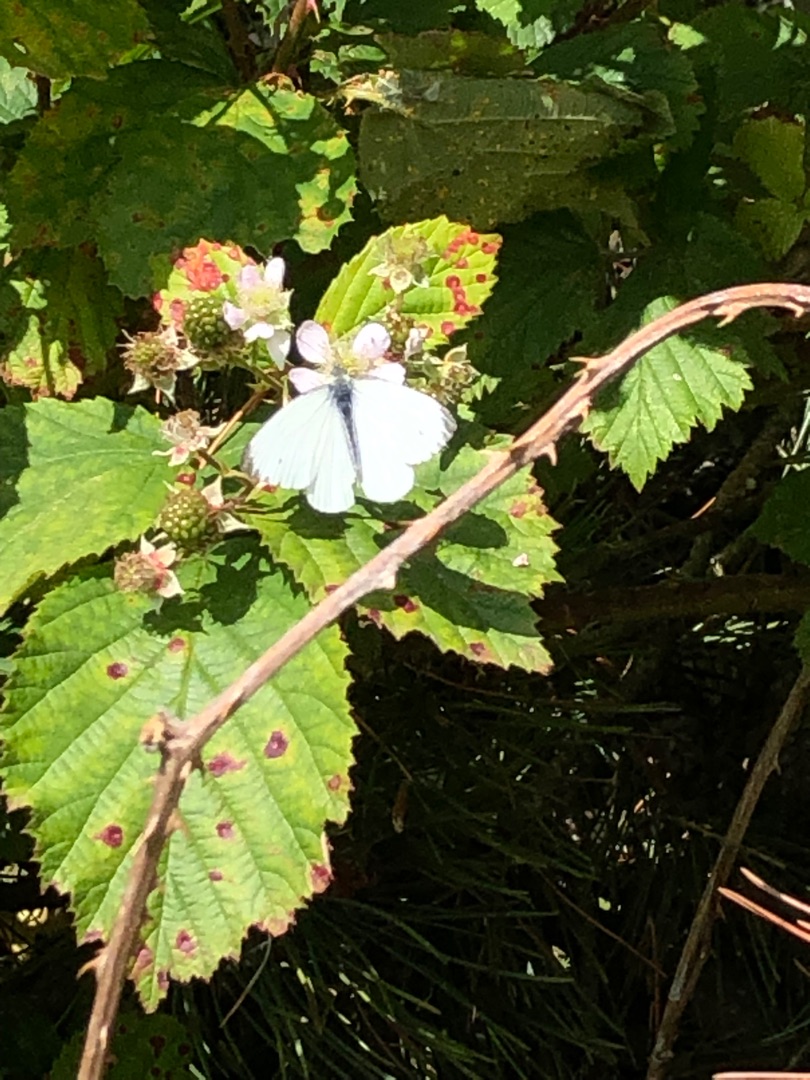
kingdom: Animalia
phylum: Arthropoda
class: Insecta
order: Lepidoptera
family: Pieridae
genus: Pieris
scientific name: Pieris napi
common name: Grønåret kålsommerfugl
